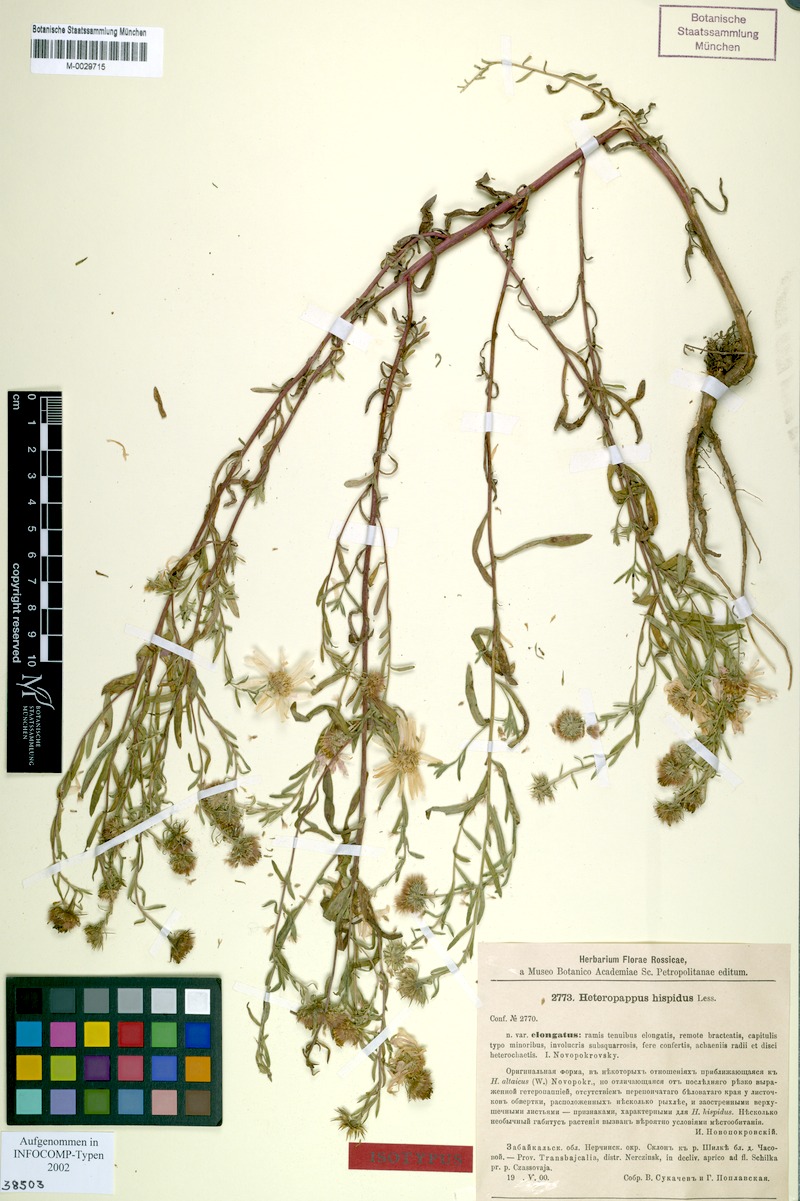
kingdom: Plantae
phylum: Tracheophyta
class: Magnoliopsida
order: Asterales
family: Asteraceae
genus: Heteropappus
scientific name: Heteropappus hispidus
